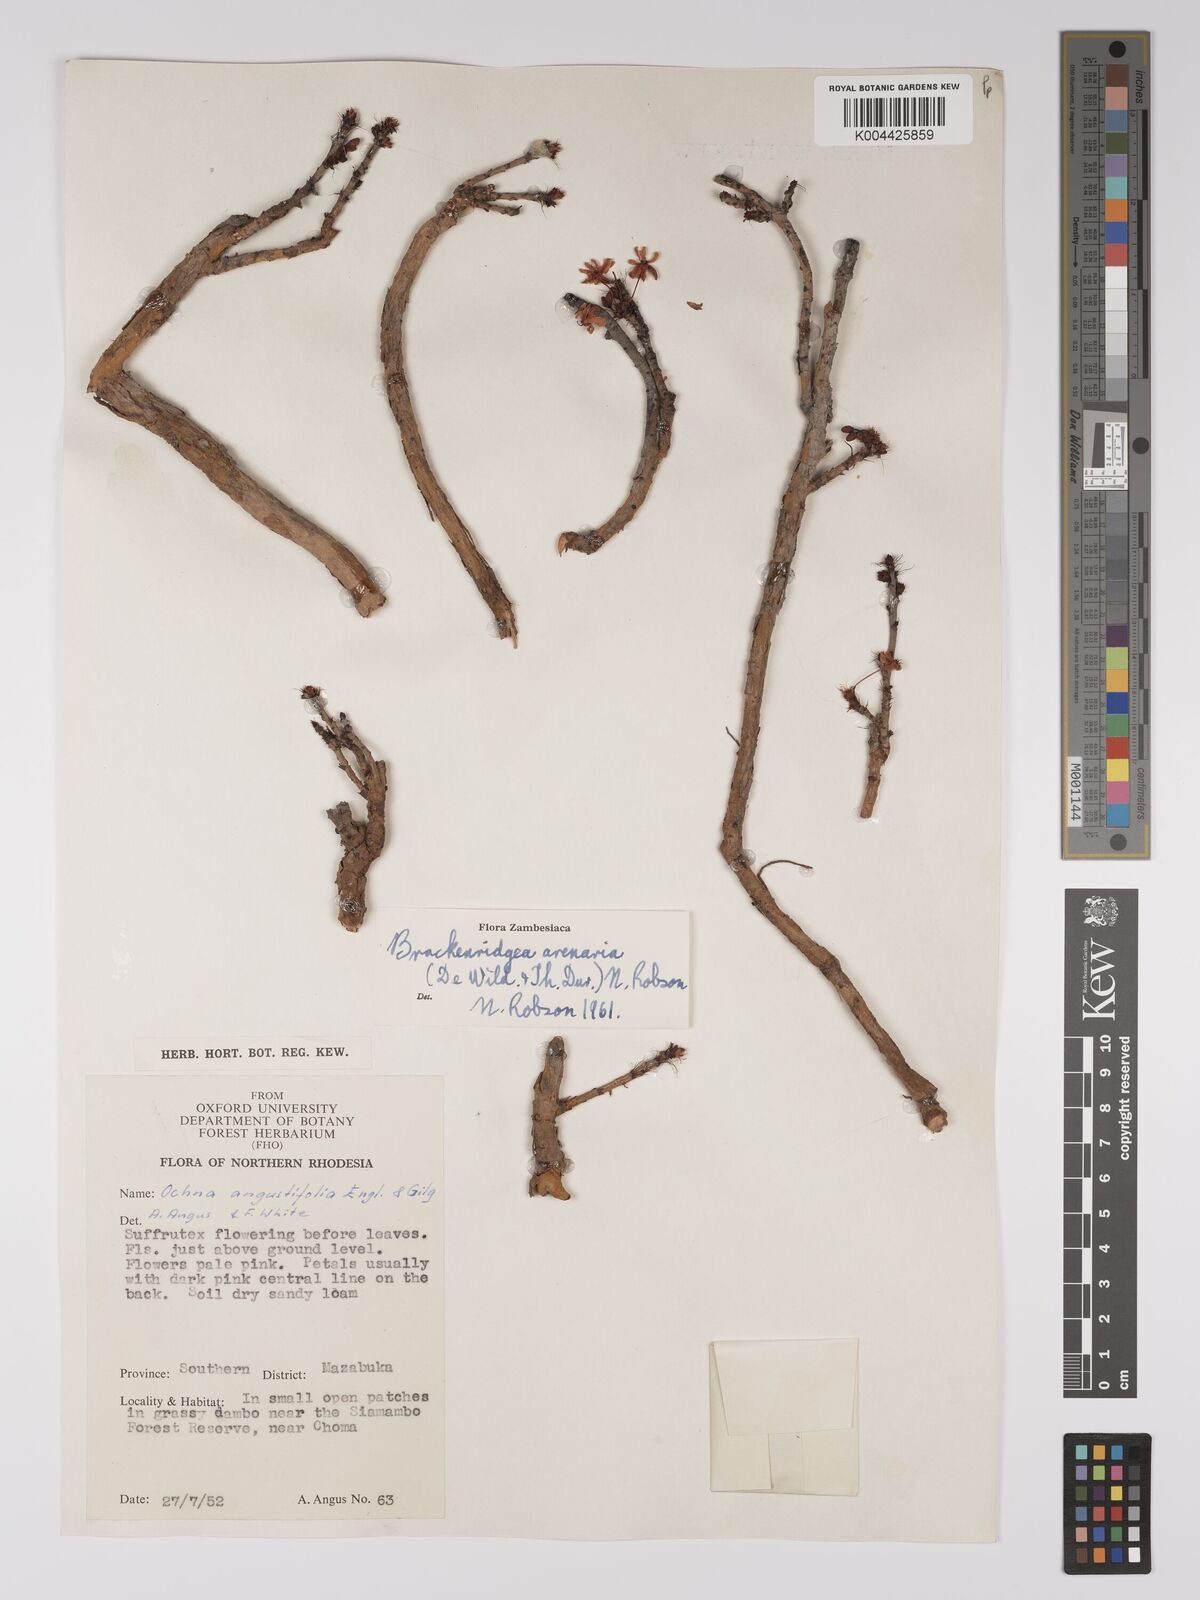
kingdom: Plantae
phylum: Tracheophyta
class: Magnoliopsida
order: Malpighiales
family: Ochnaceae
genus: Ochna
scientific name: Ochna arenaria
